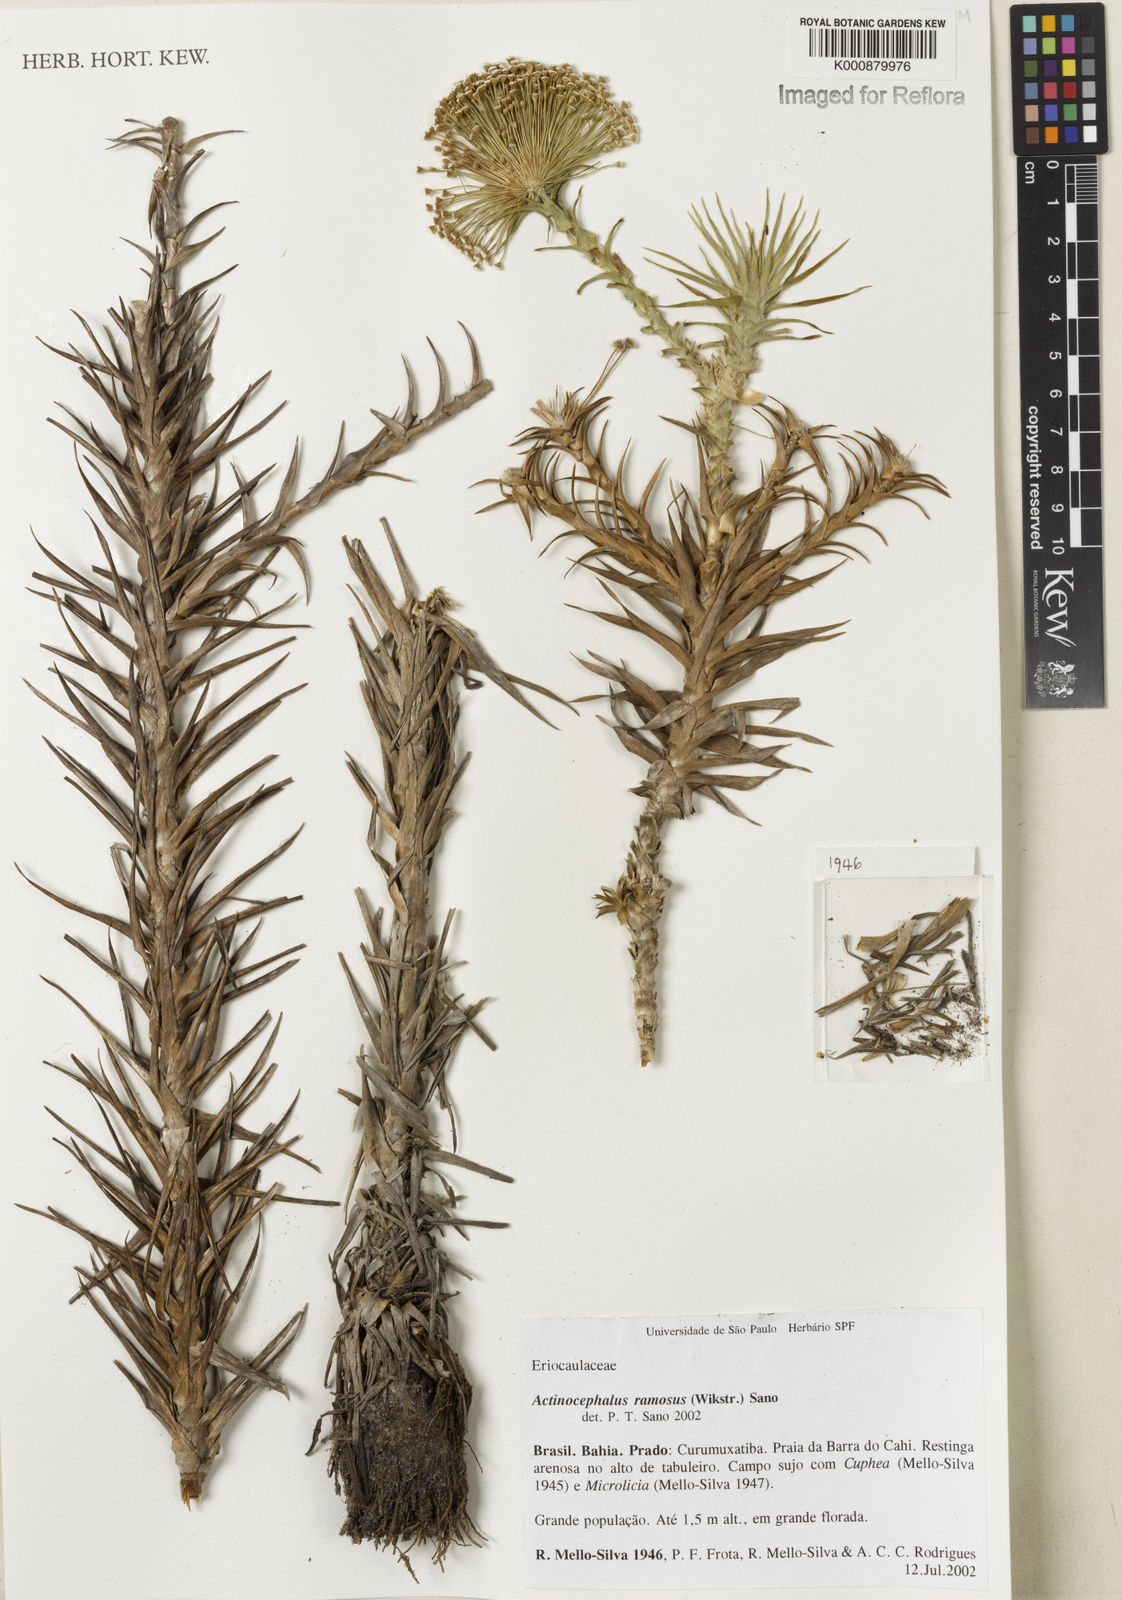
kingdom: Plantae
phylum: Tracheophyta
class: Liliopsida
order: Poales
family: Eriocaulaceae
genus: Paepalanthus
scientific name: Paepalanthus ramosus
